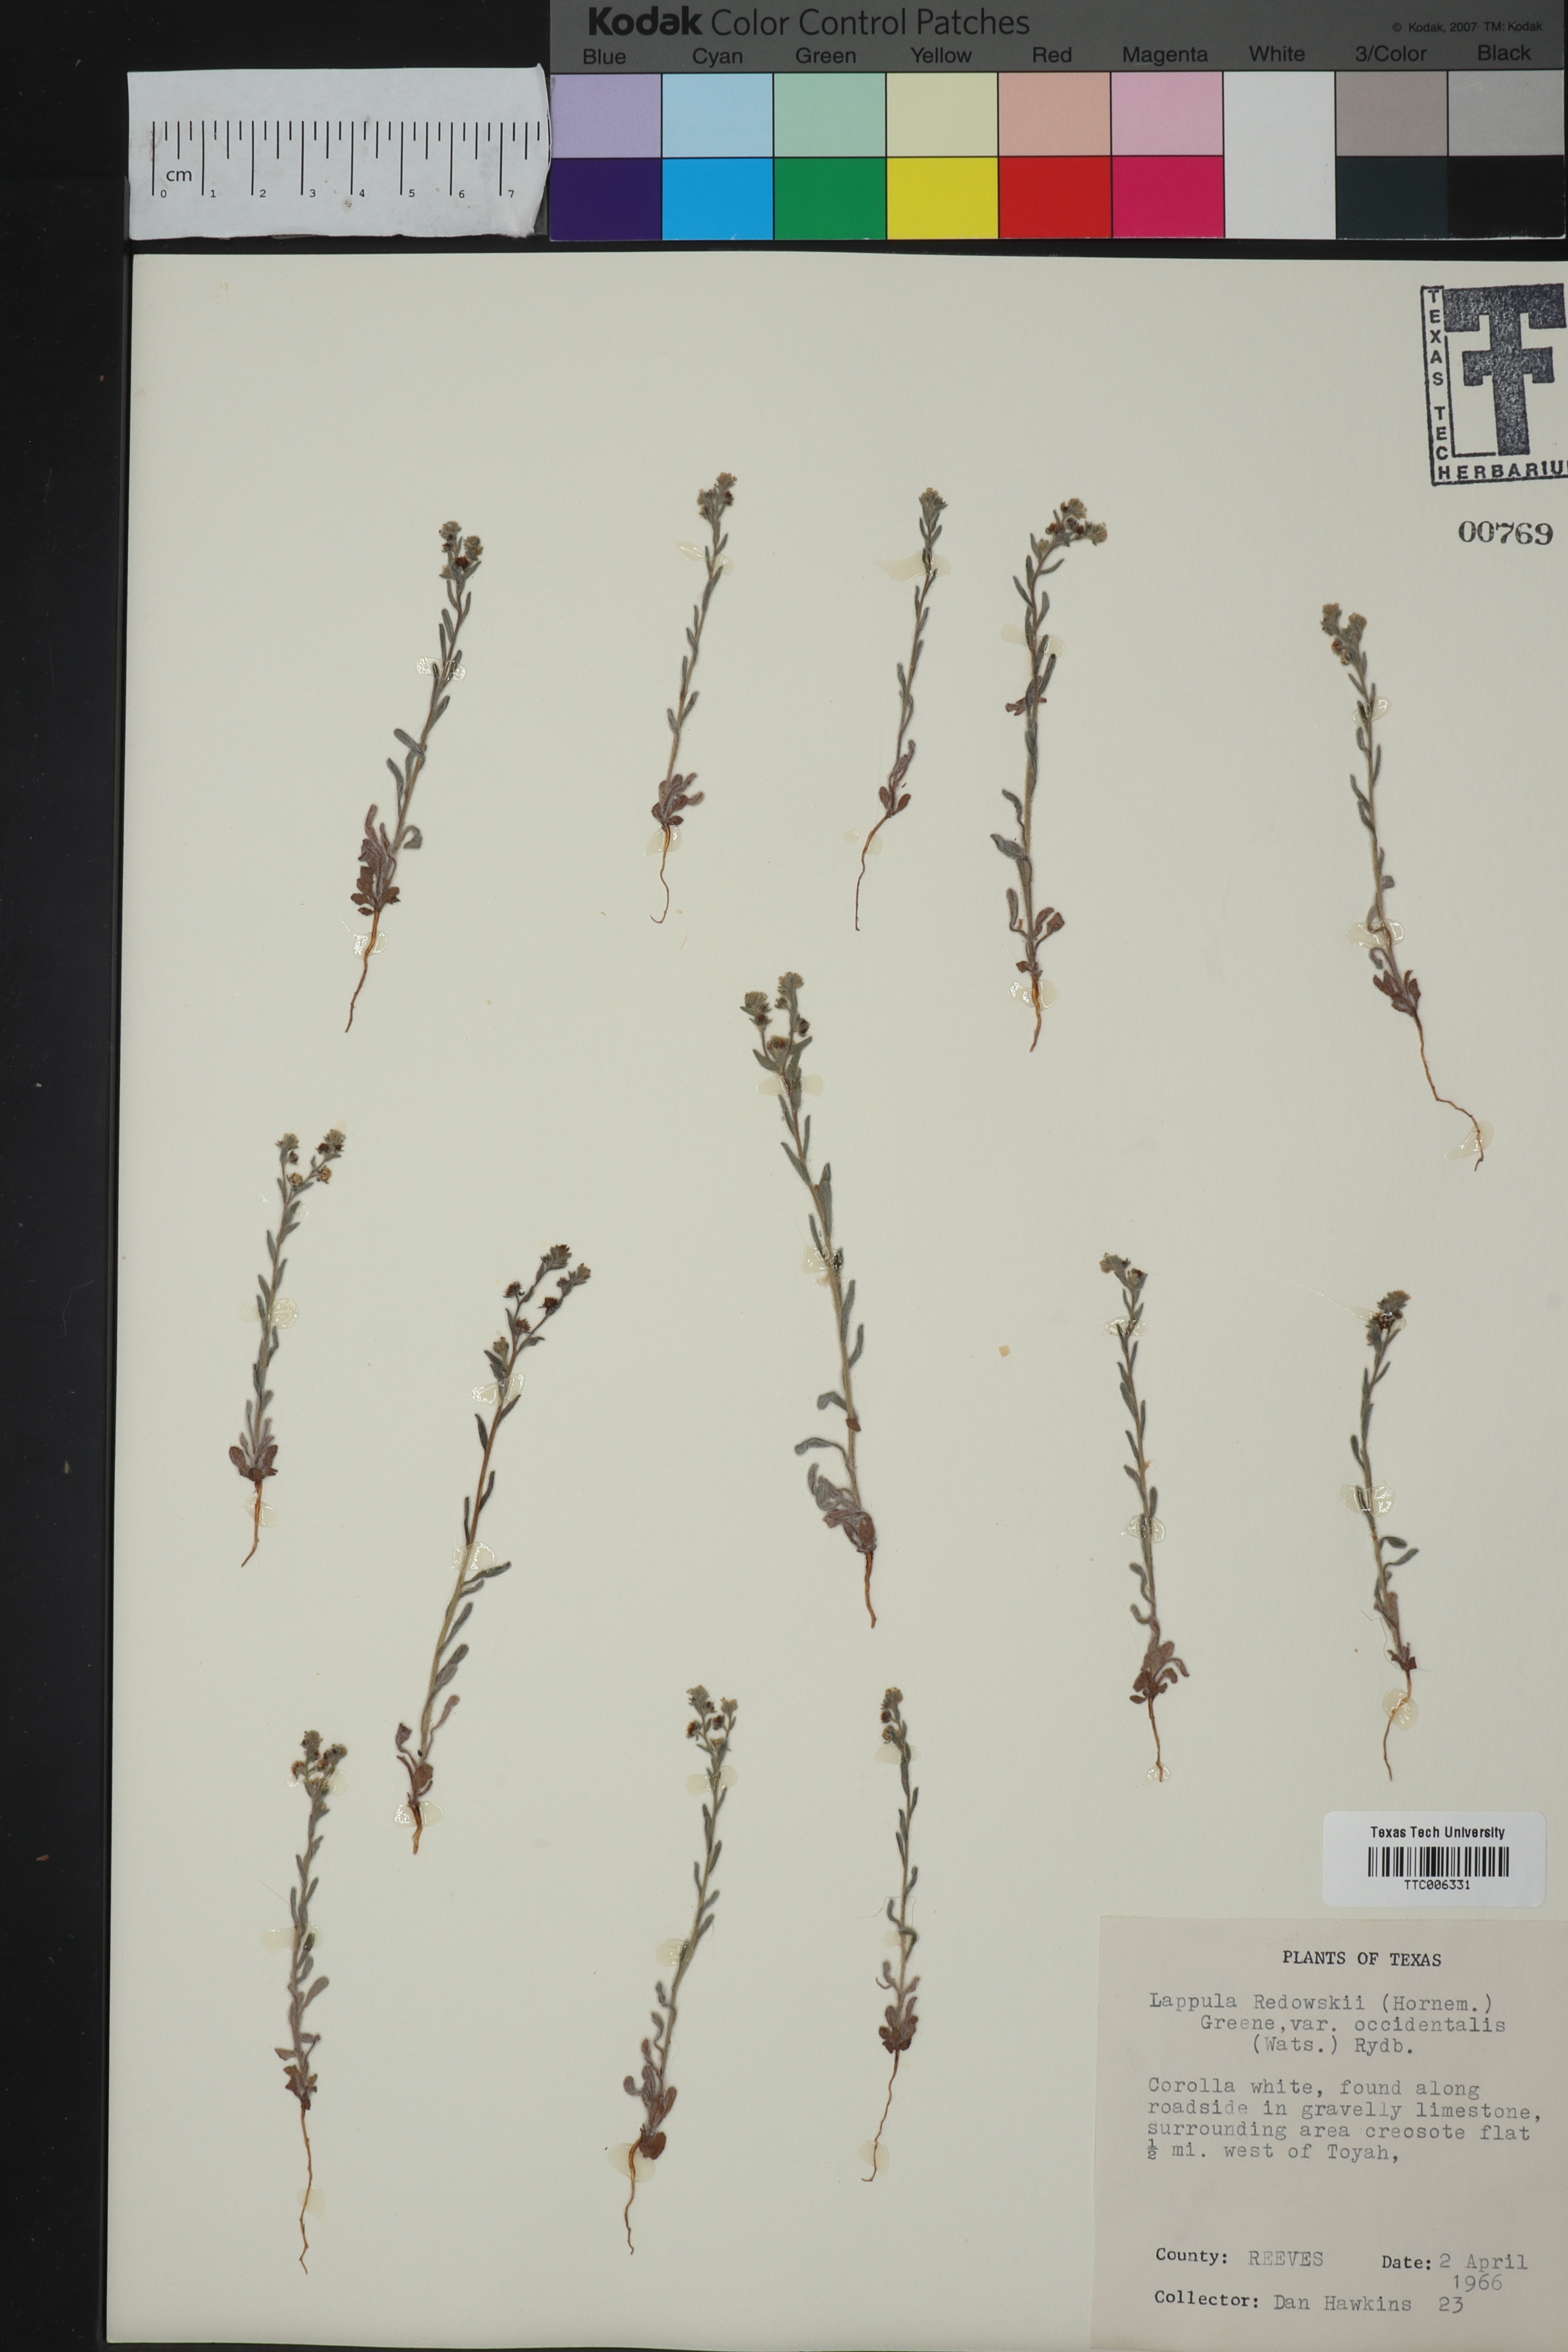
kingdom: Plantae
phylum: Tracheophyta
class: Magnoliopsida
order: Boraginales
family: Boraginaceae
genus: Lappula
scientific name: Lappula occidentalis
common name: Western stickseed
